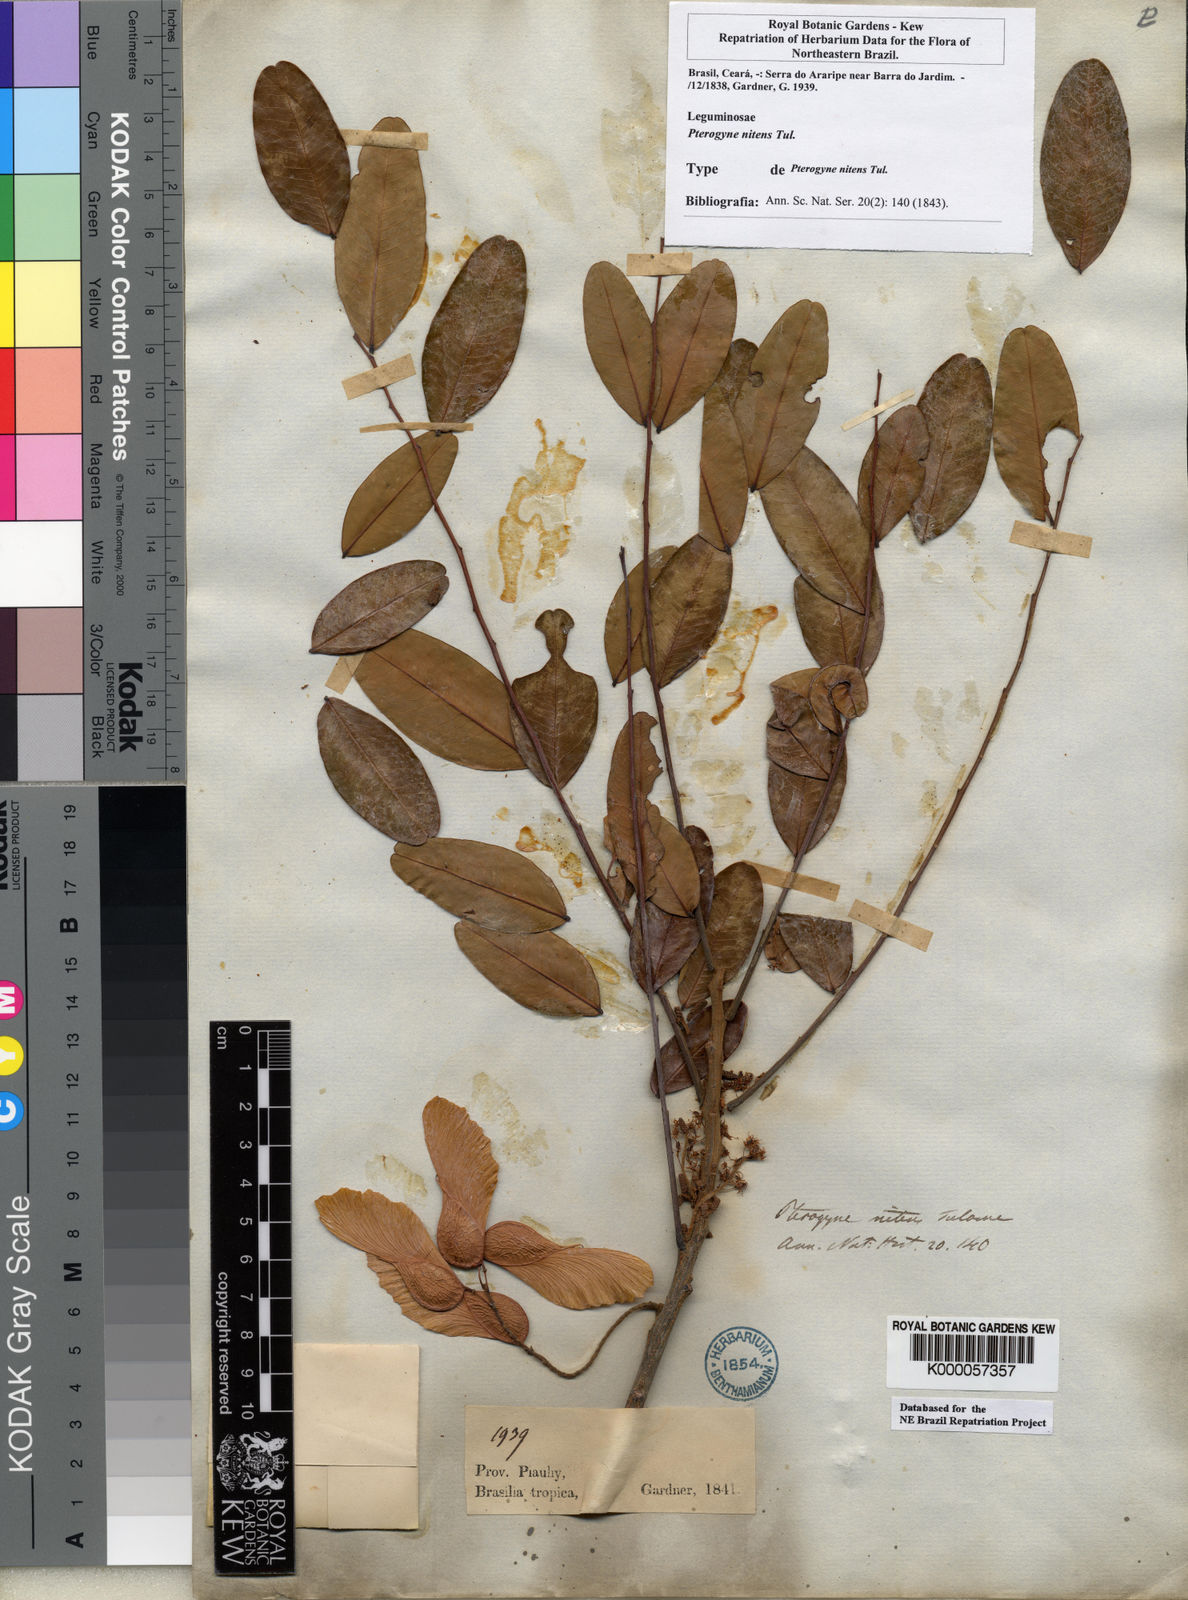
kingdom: Plantae
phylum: Tracheophyta
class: Magnoliopsida
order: Fabales
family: Fabaceae
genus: Pterogyne
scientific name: Pterogyne nitens
